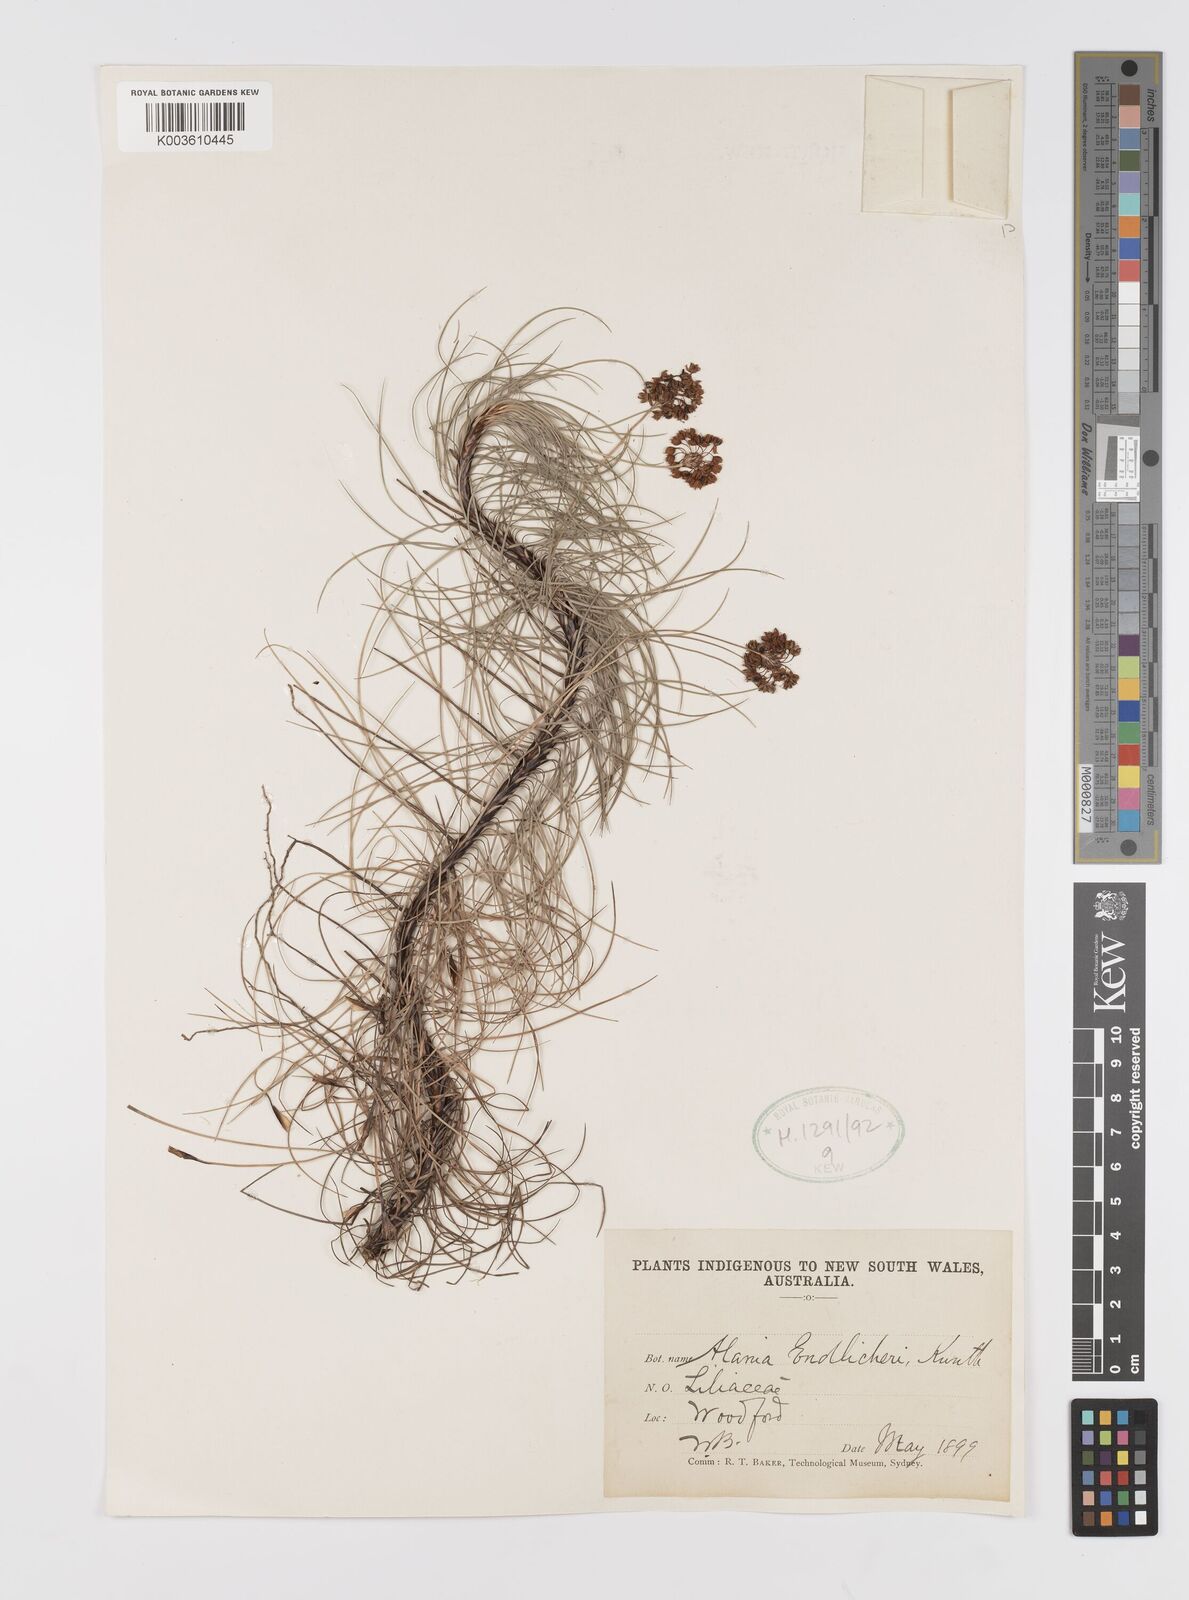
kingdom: Plantae
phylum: Tracheophyta
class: Liliopsida
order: Asparagales
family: Boryaceae
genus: Alania
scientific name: Alania cunninghamii
